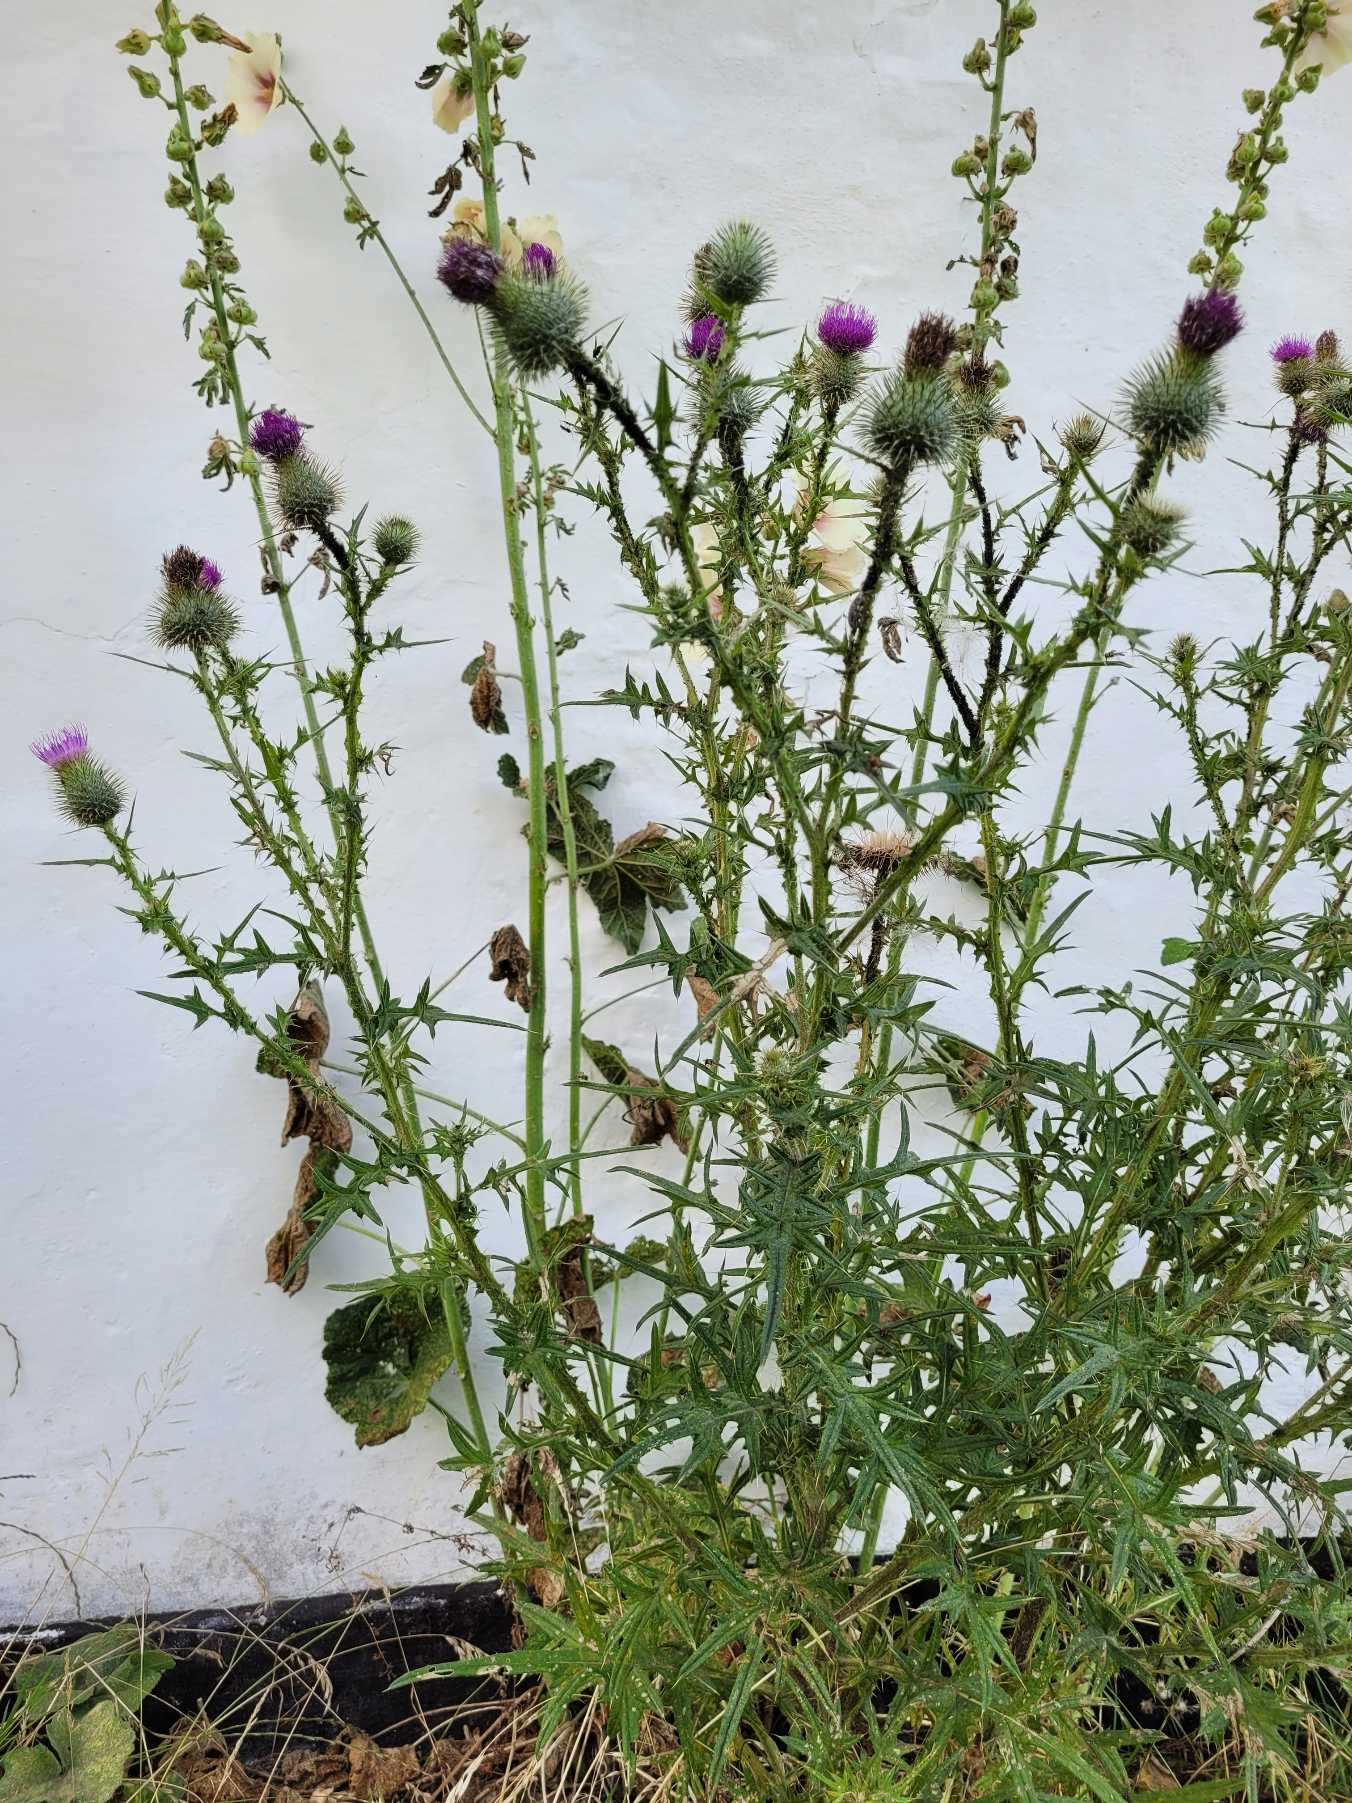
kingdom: Plantae
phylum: Tracheophyta
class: Magnoliopsida
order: Asterales
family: Asteraceae
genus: Cirsium
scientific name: Cirsium vulgare
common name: Horse-tidsel
